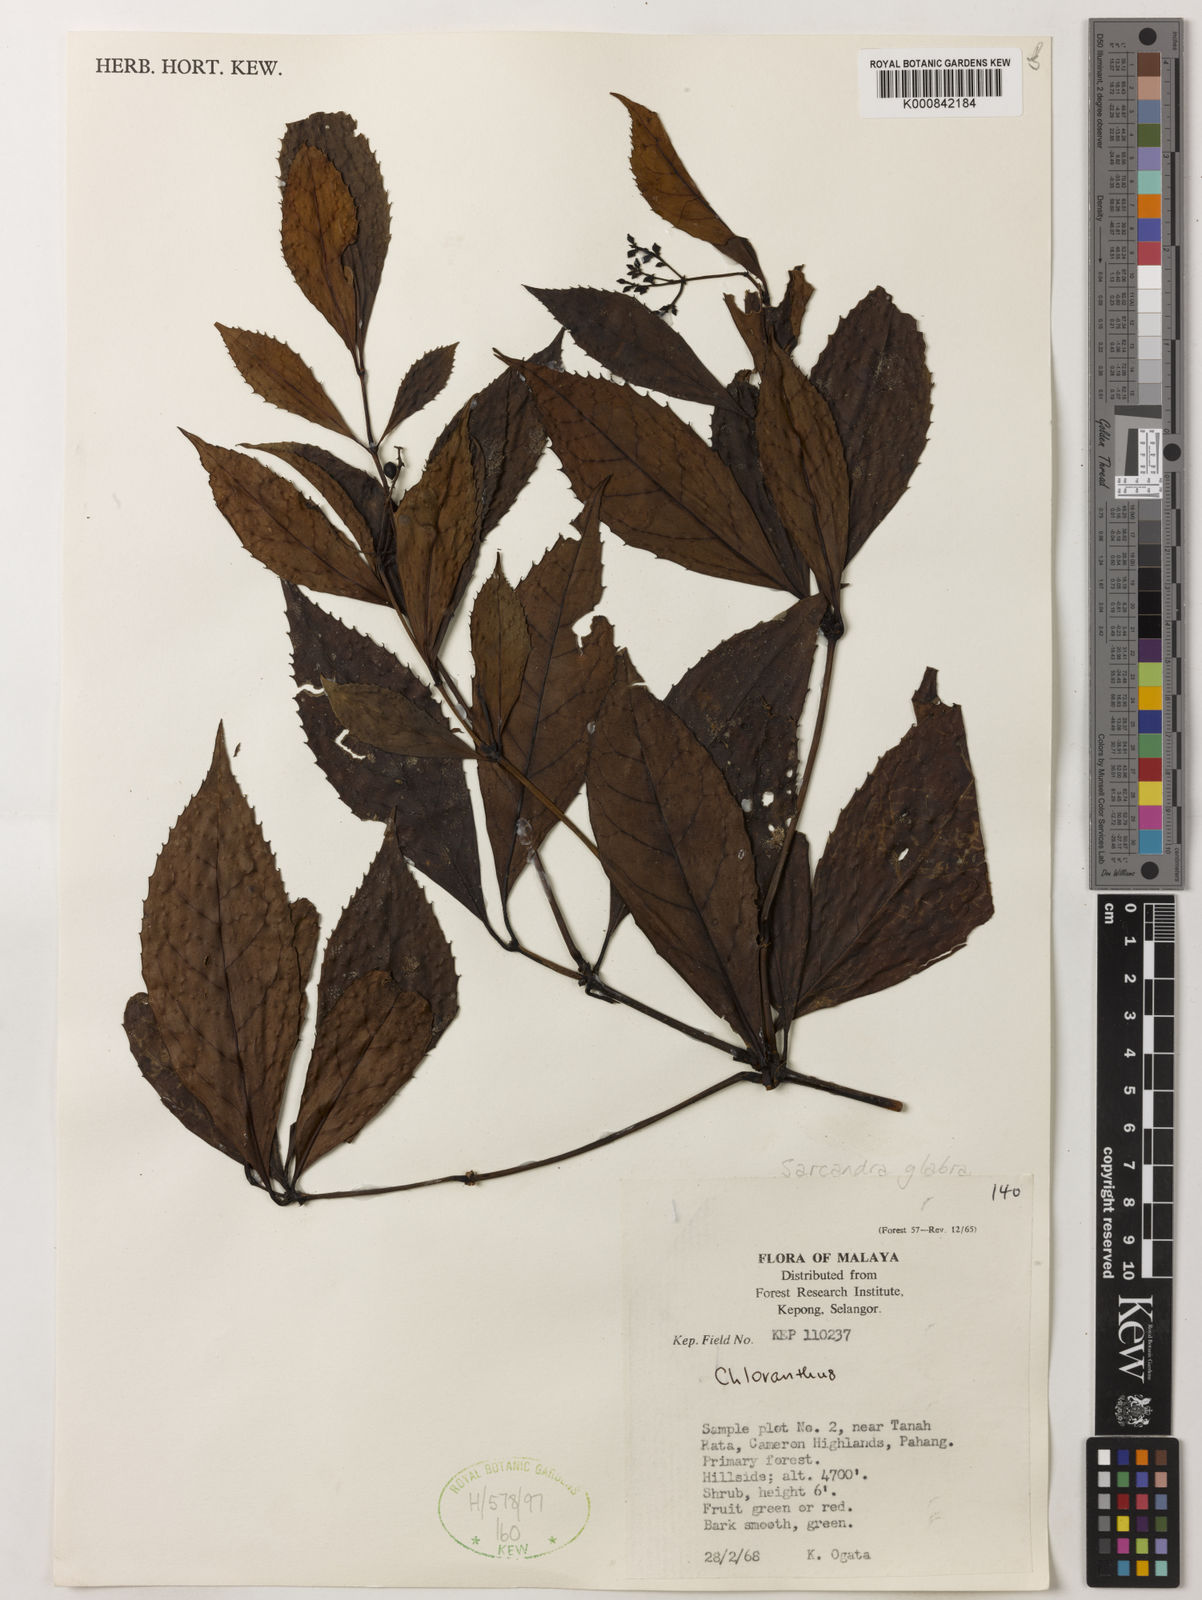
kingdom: Plantae
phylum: Tracheophyta
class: Magnoliopsida
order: Chloranthales
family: Chloranthaceae
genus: Sarcandra
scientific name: Sarcandra glabra
